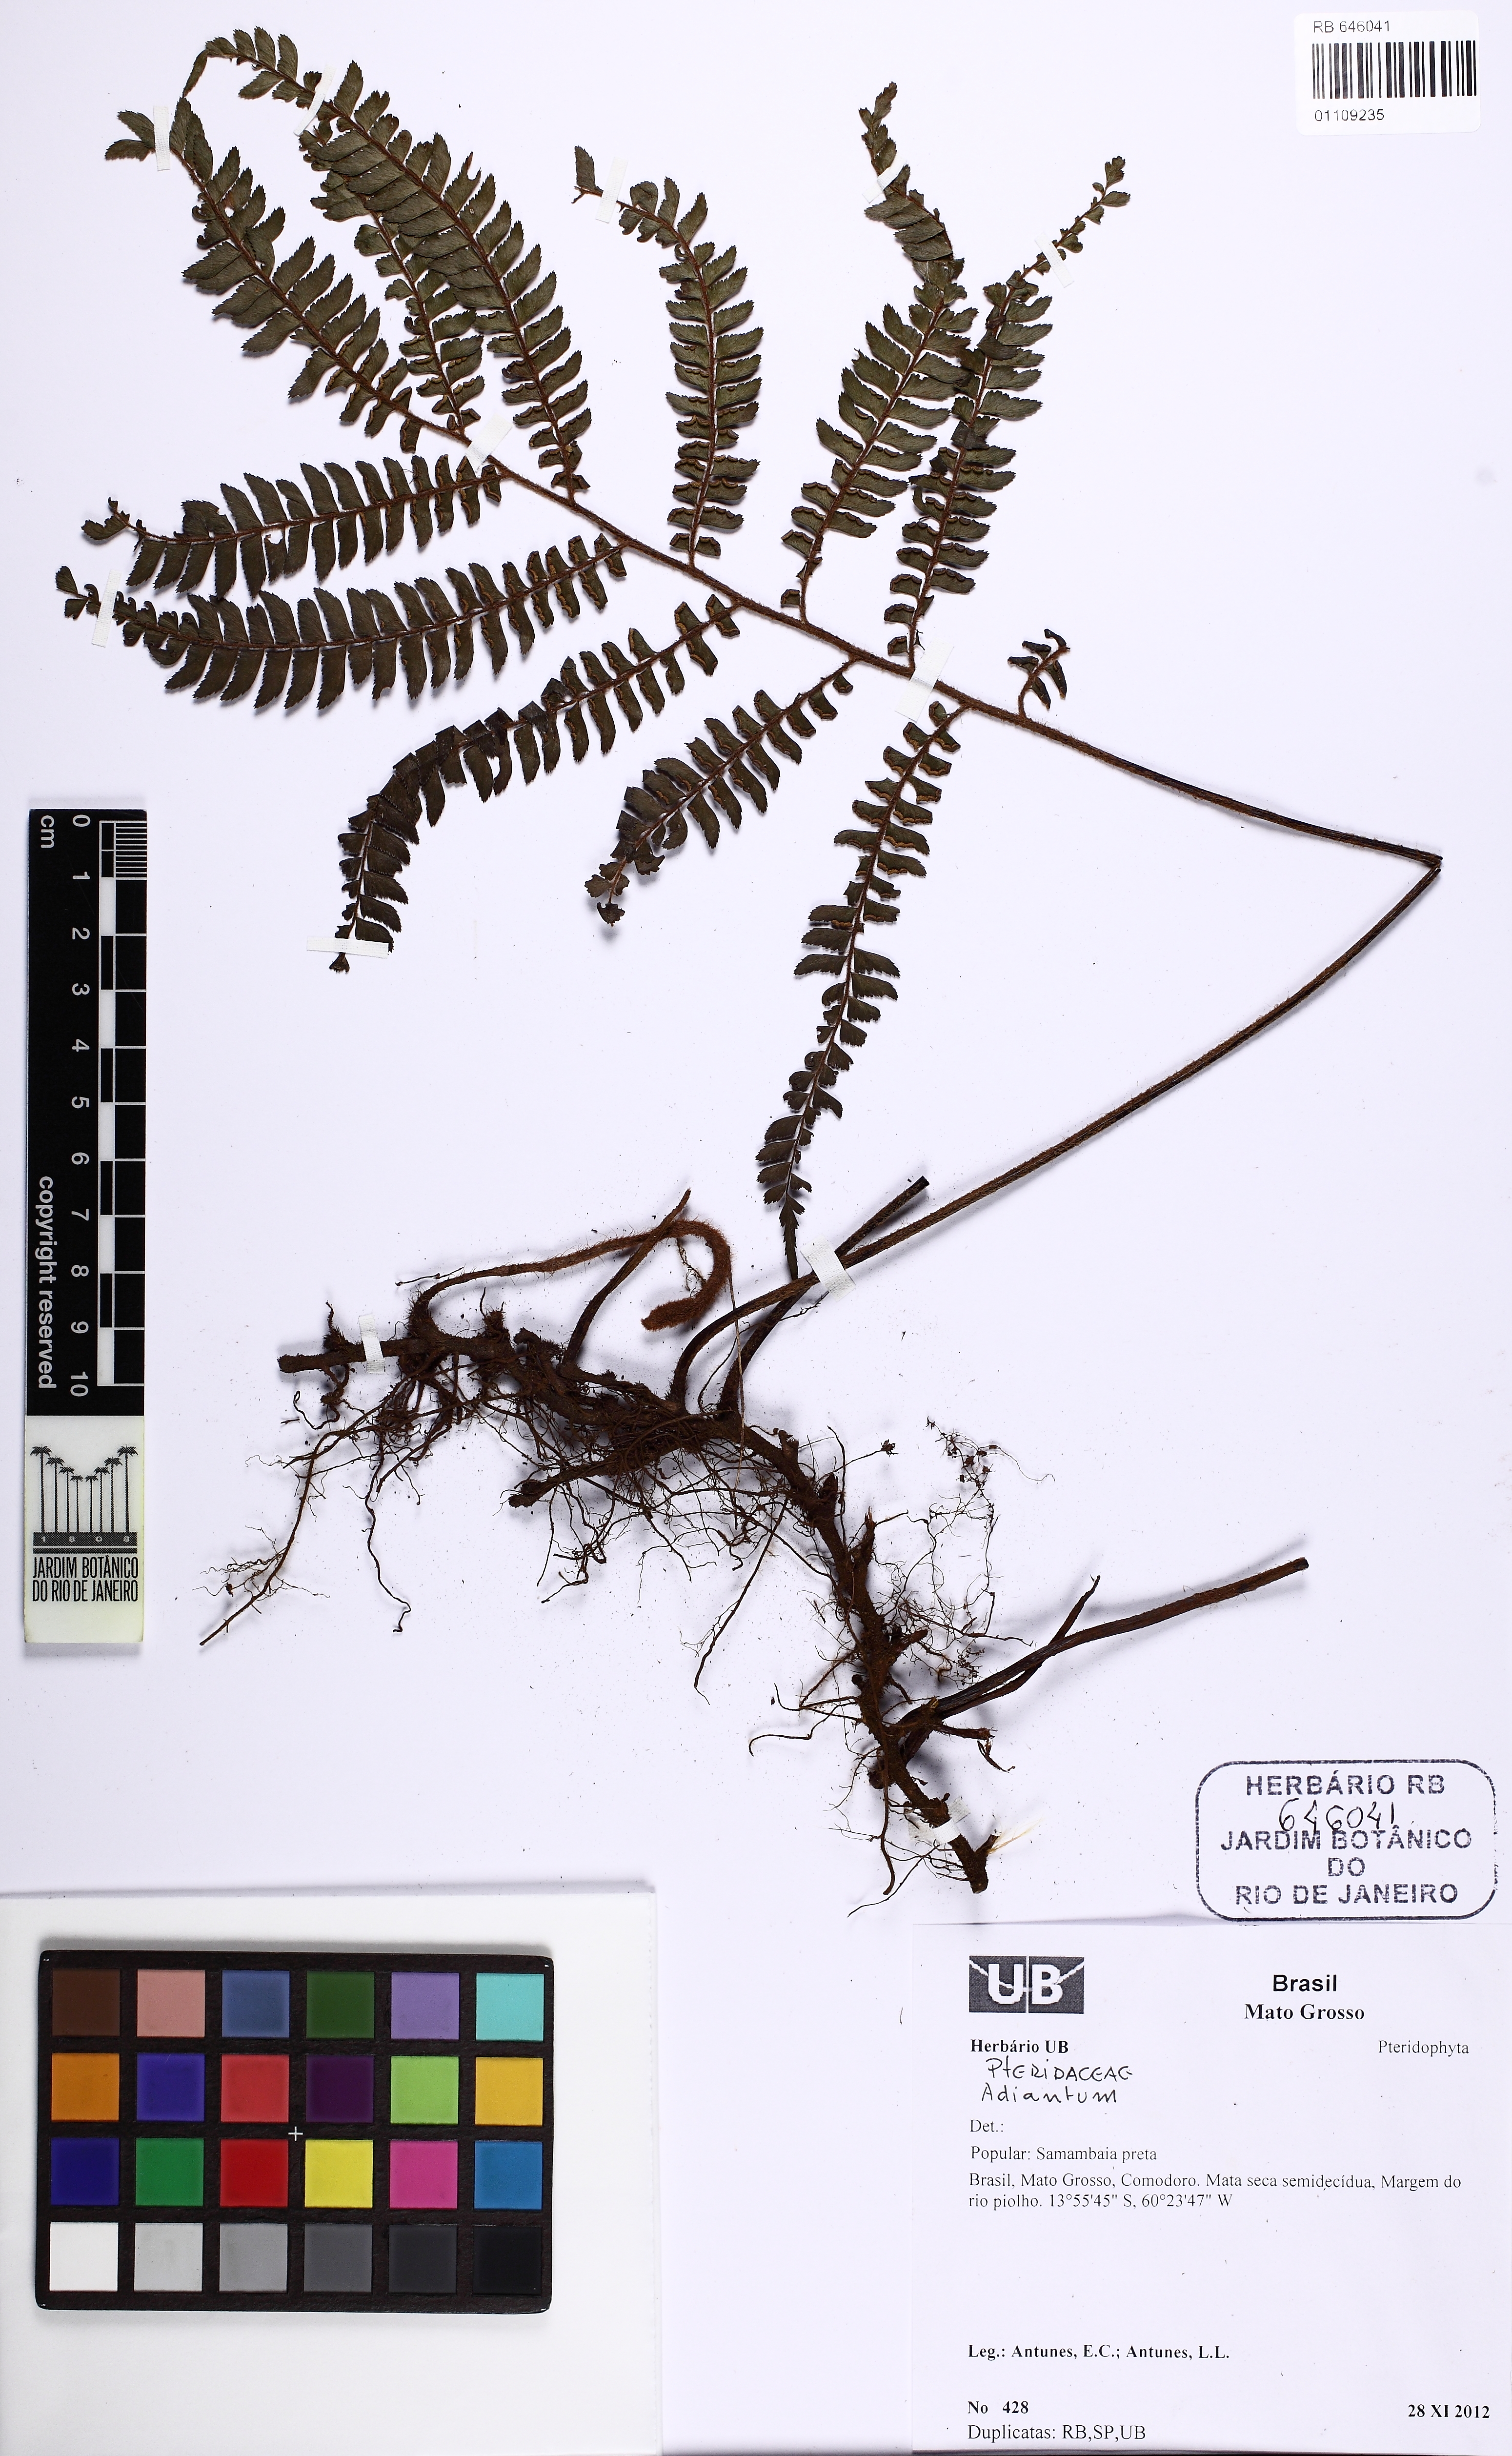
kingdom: Plantae
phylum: Tracheophyta
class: Polypodiopsida
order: Polypodiales
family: Pteridaceae
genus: Adiantum
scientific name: Adiantum
